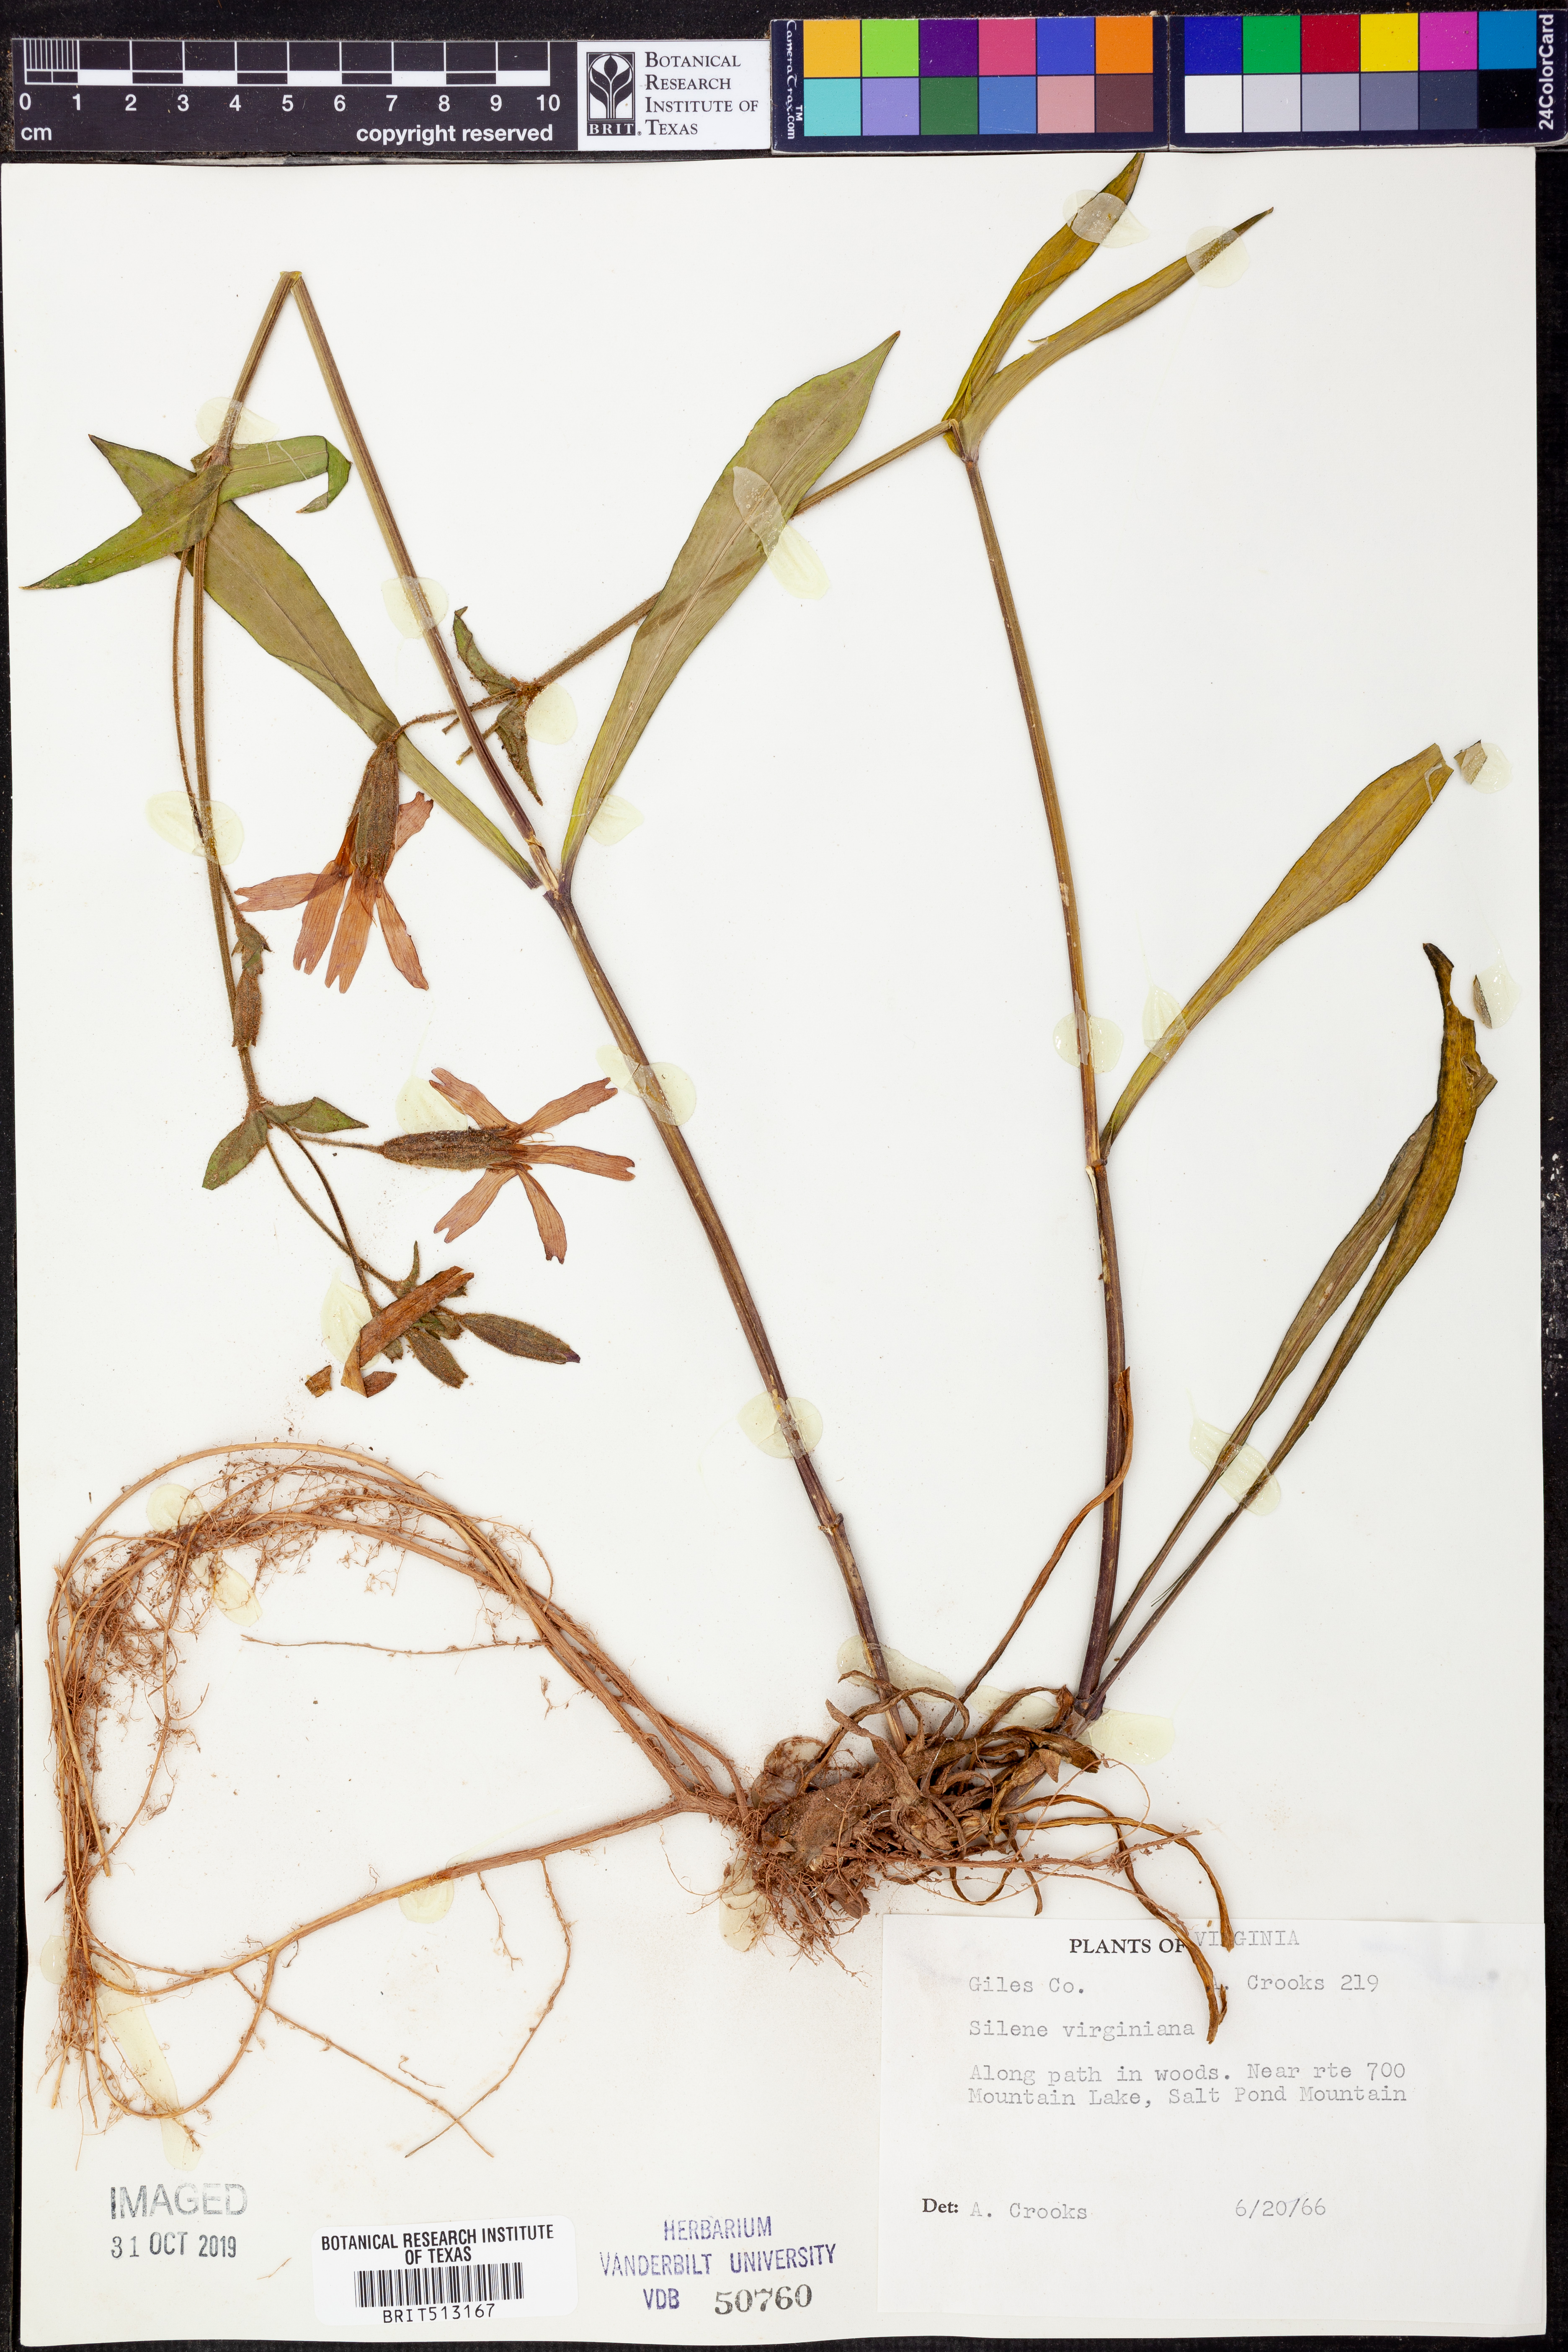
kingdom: Plantae
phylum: Tracheophyta
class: Magnoliopsida
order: Caryophyllales
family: Caryophyllaceae
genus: Silene
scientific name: Silene virginica
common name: Fire-pink
